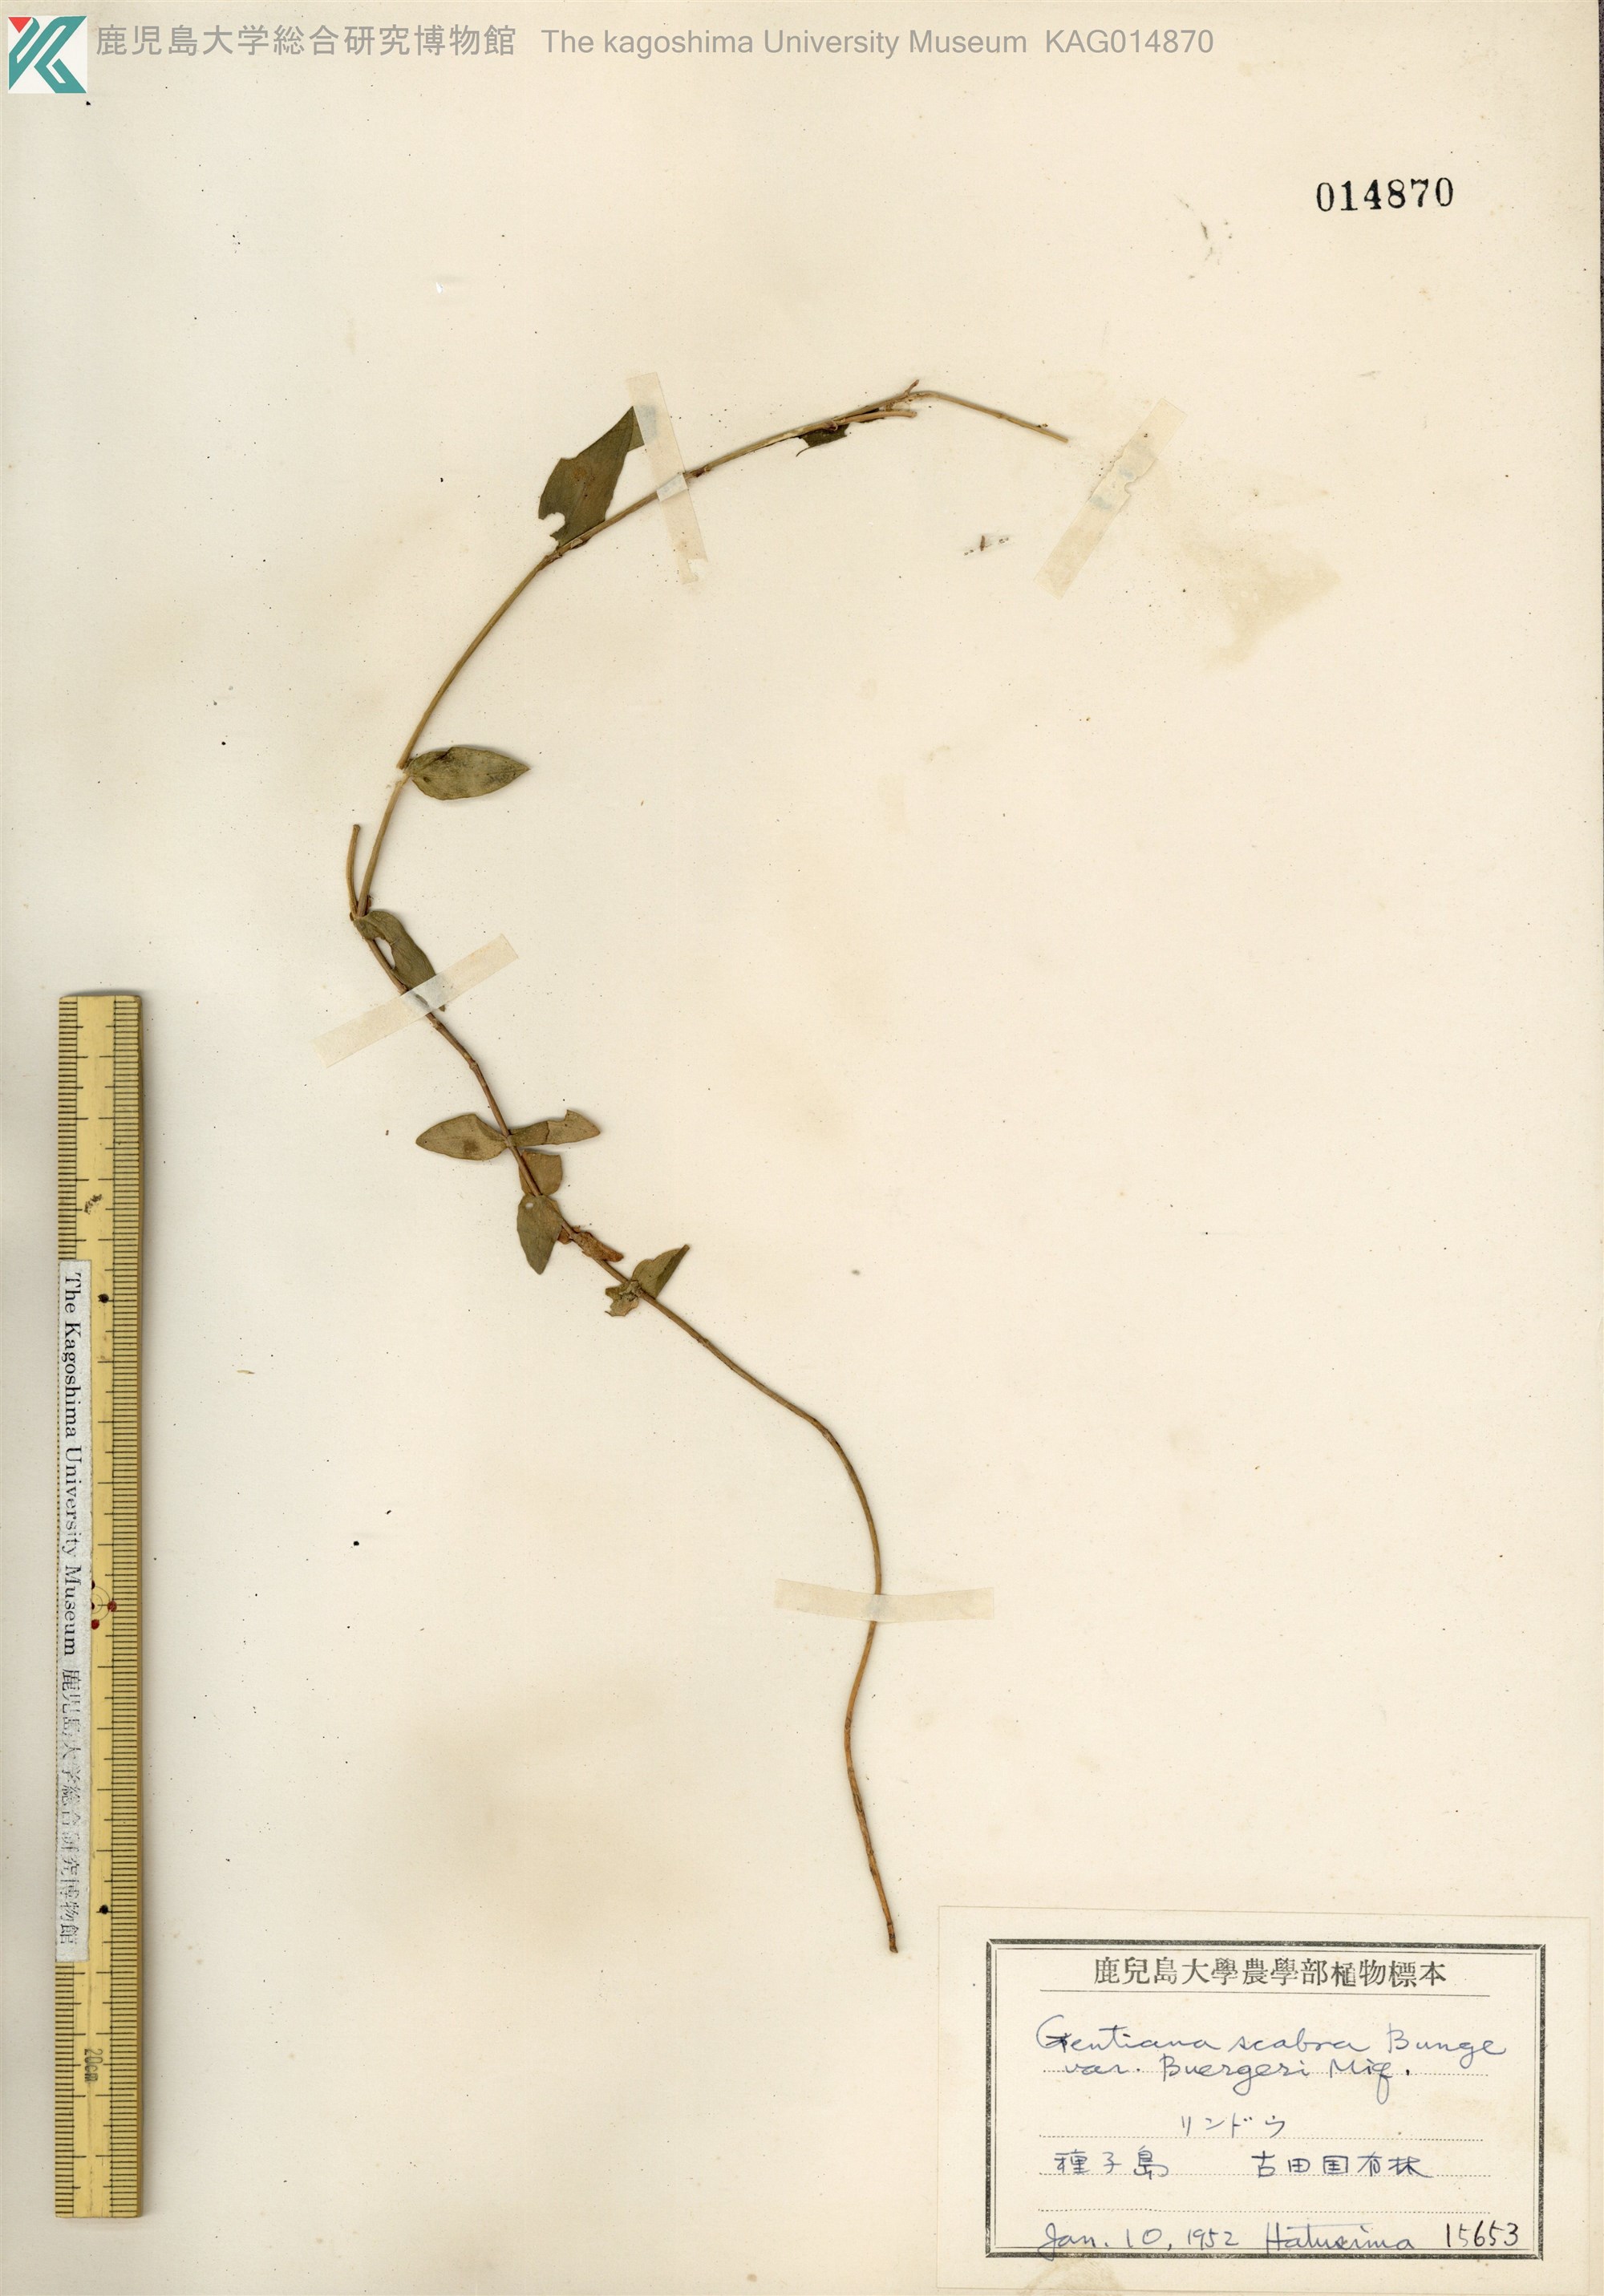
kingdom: Plantae
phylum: Tracheophyta
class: Magnoliopsida
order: Gentianales
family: Gentianaceae
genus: Gentiana
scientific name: Gentiana scabra
